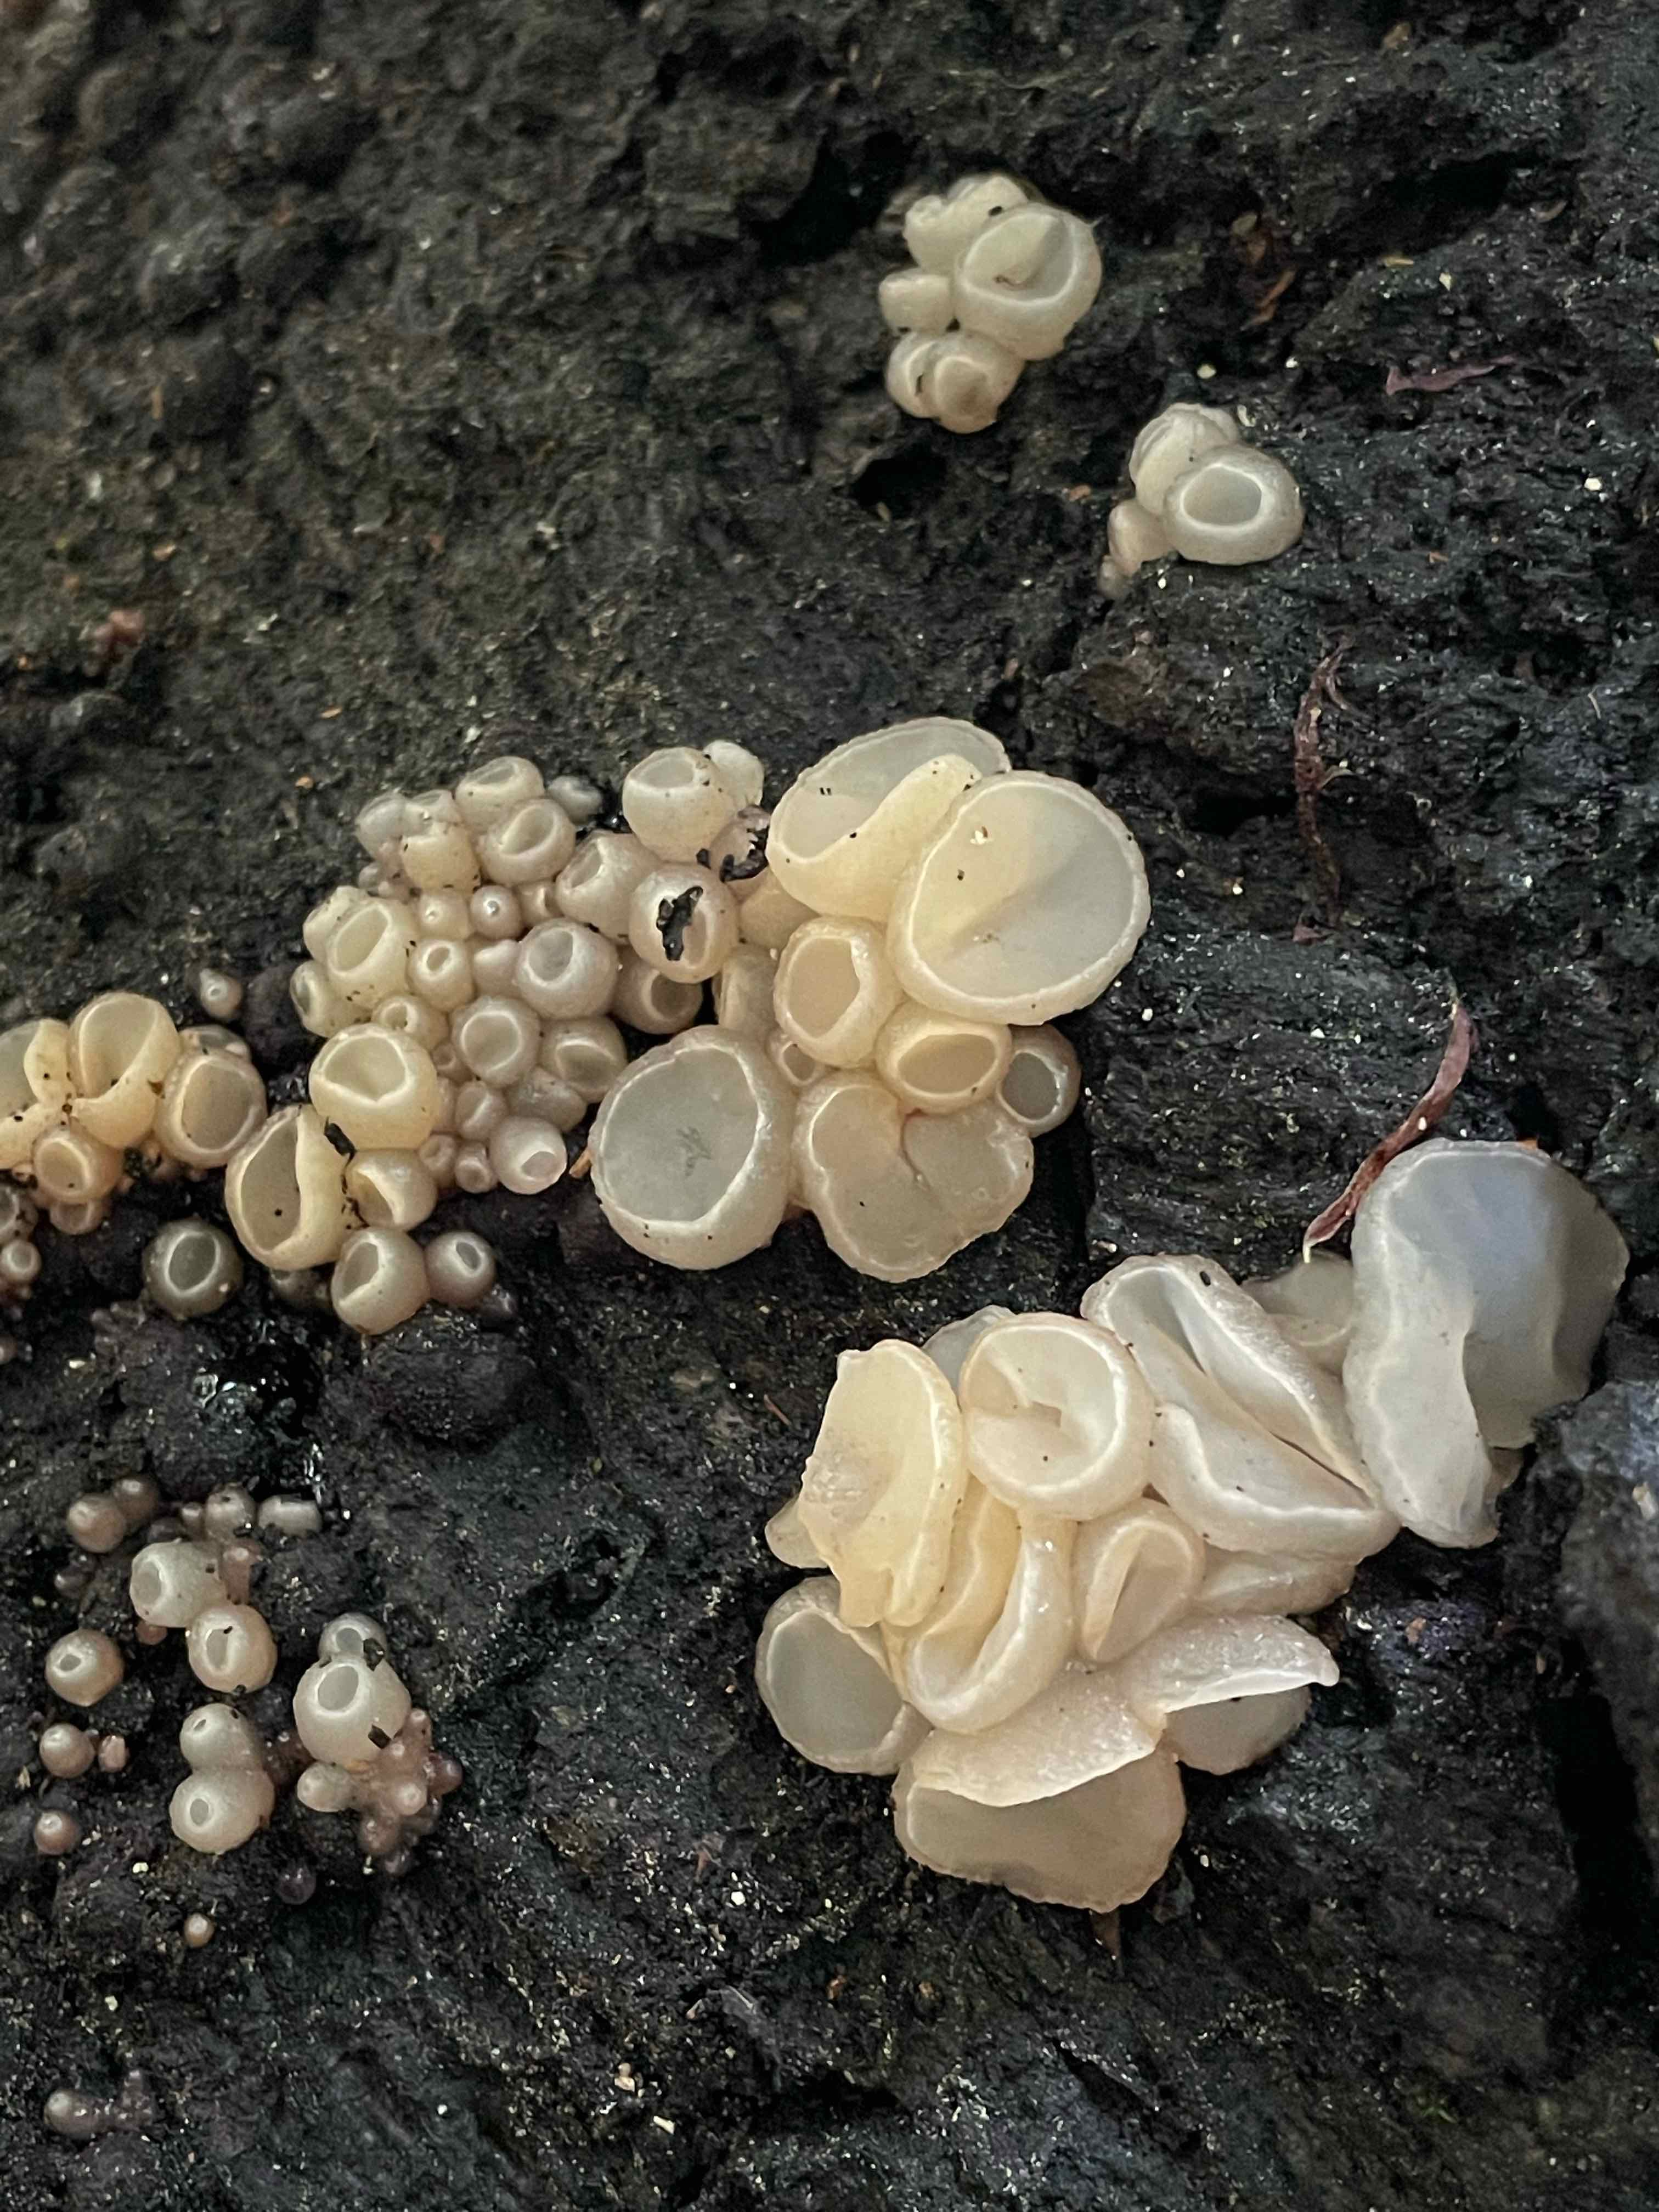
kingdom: Fungi
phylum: Ascomycota
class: Leotiomycetes
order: Helotiales
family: Gelatinodiscaceae
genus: Neobulgaria
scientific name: Neobulgaria pura
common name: bleg bævreskive
